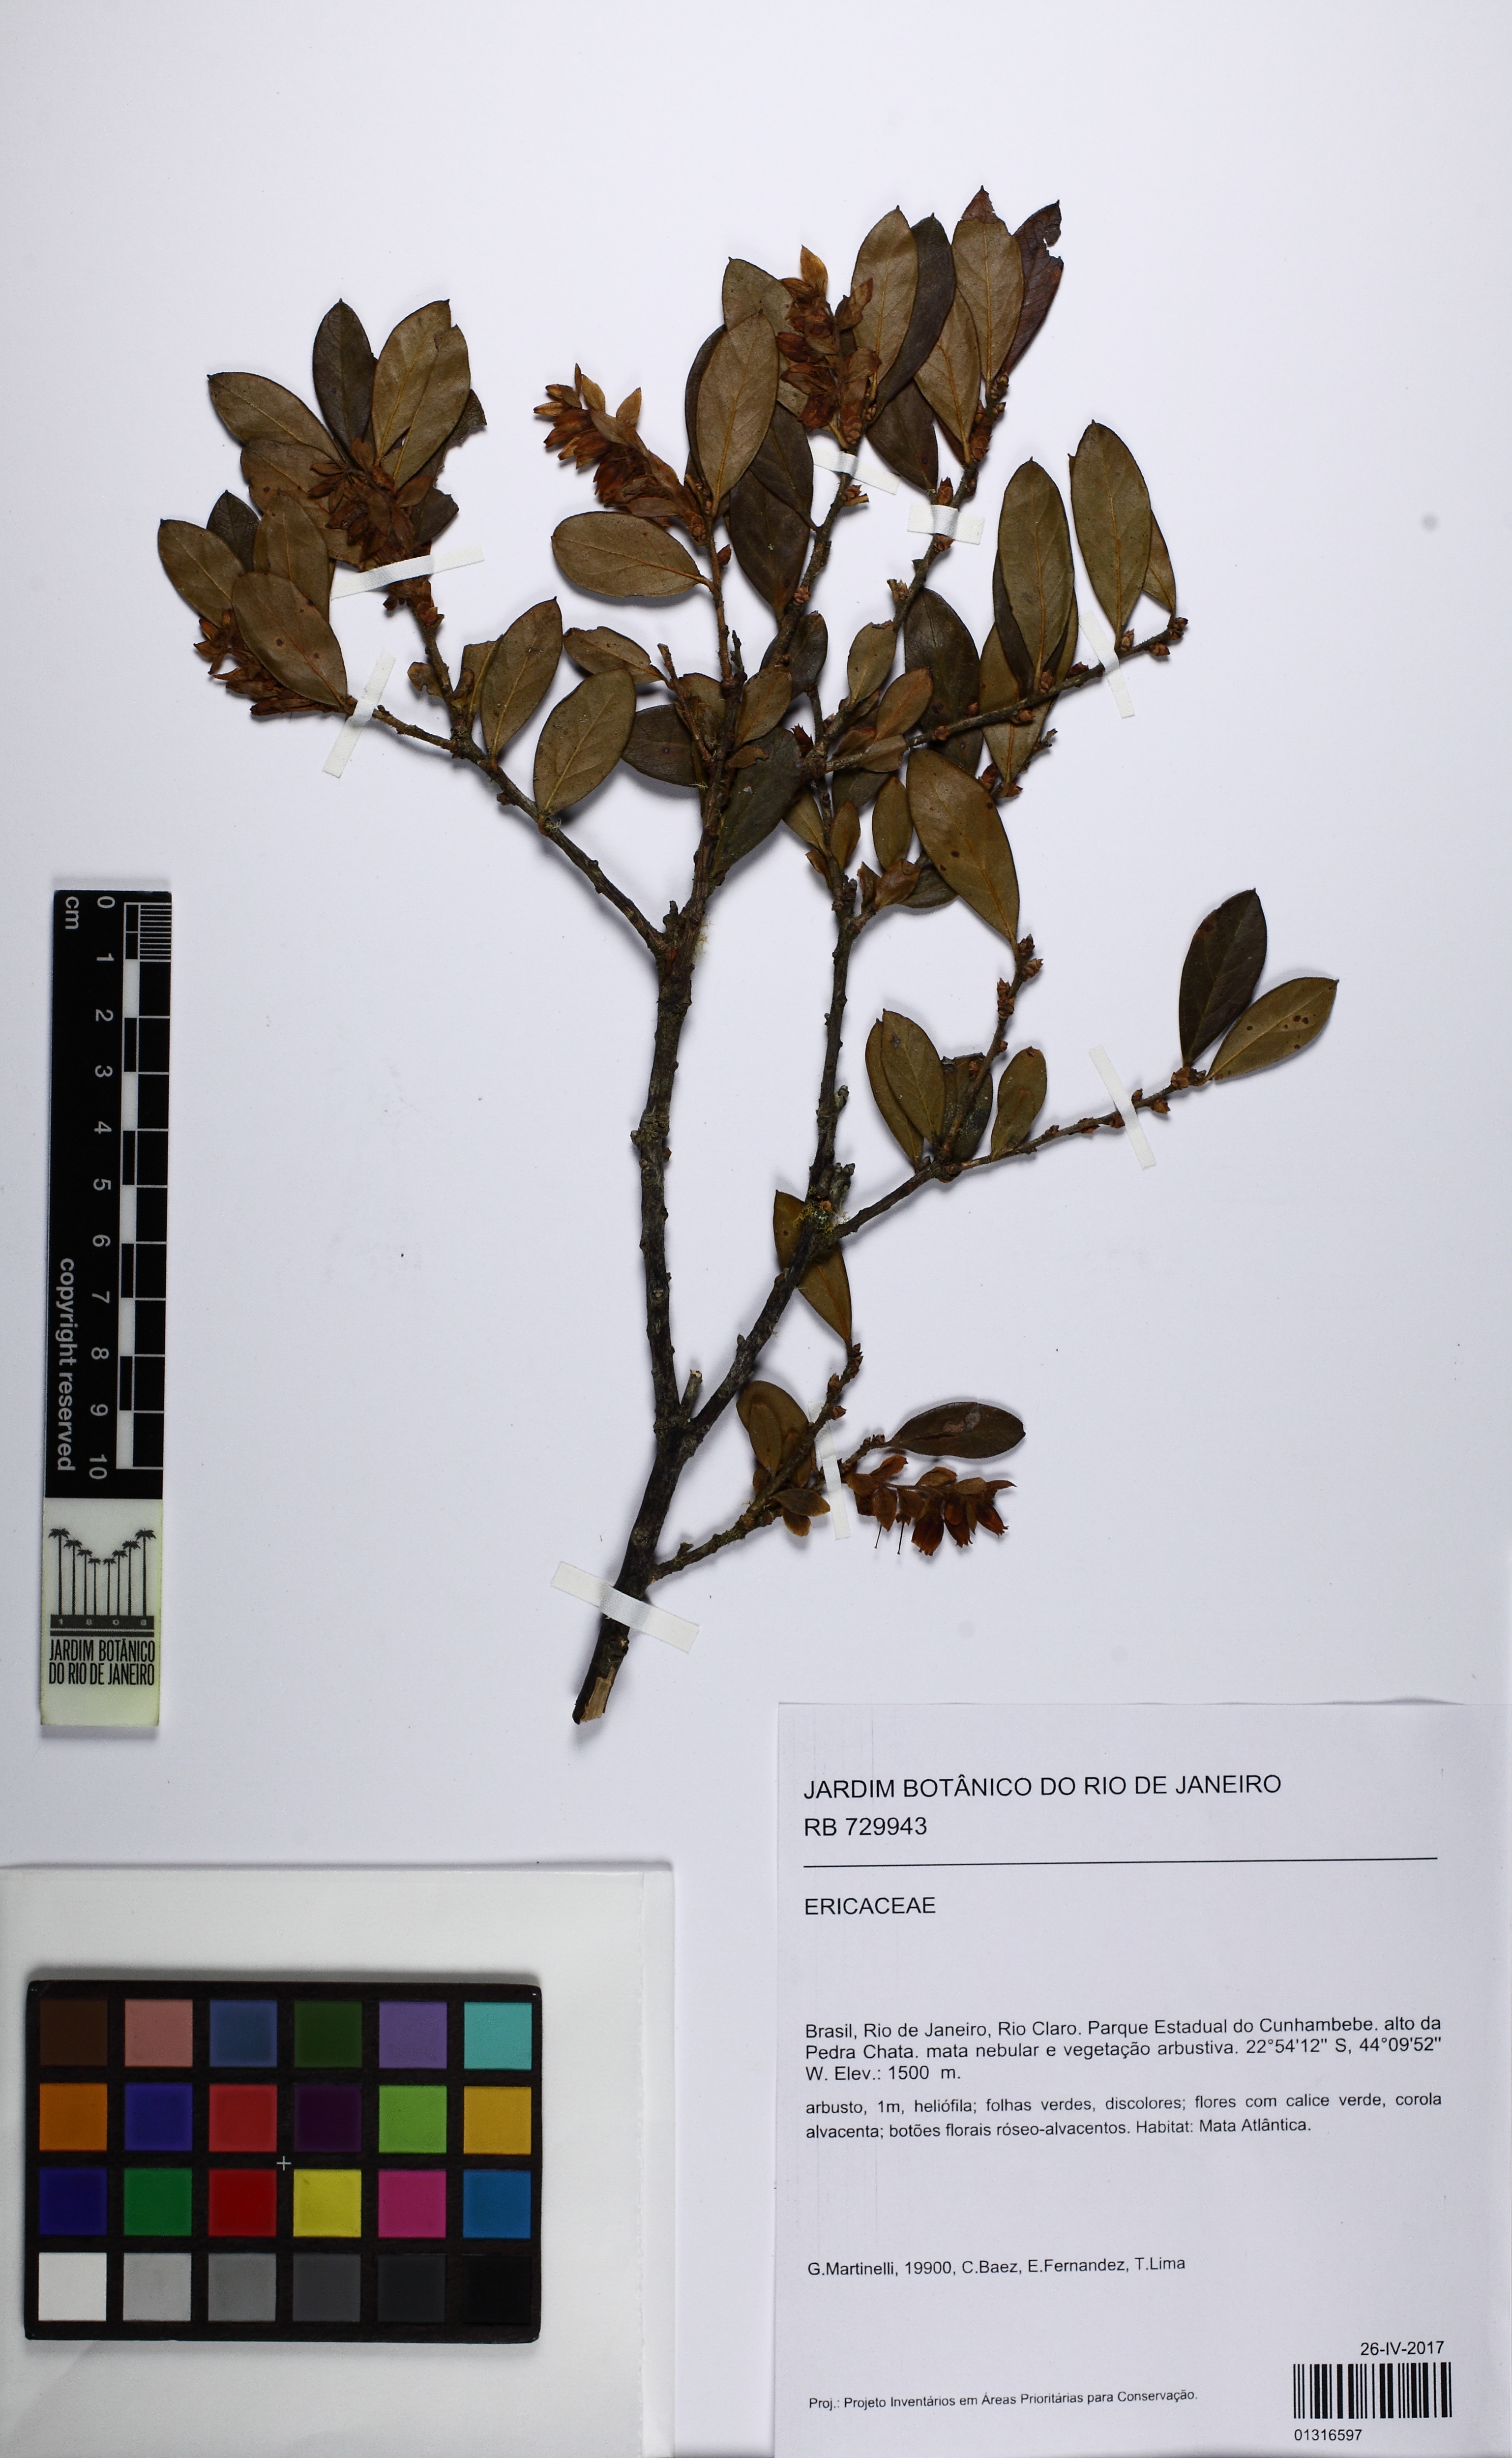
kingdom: Plantae
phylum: Tracheophyta
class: Magnoliopsida
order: Ericales
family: Ericaceae
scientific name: Ericaceae
